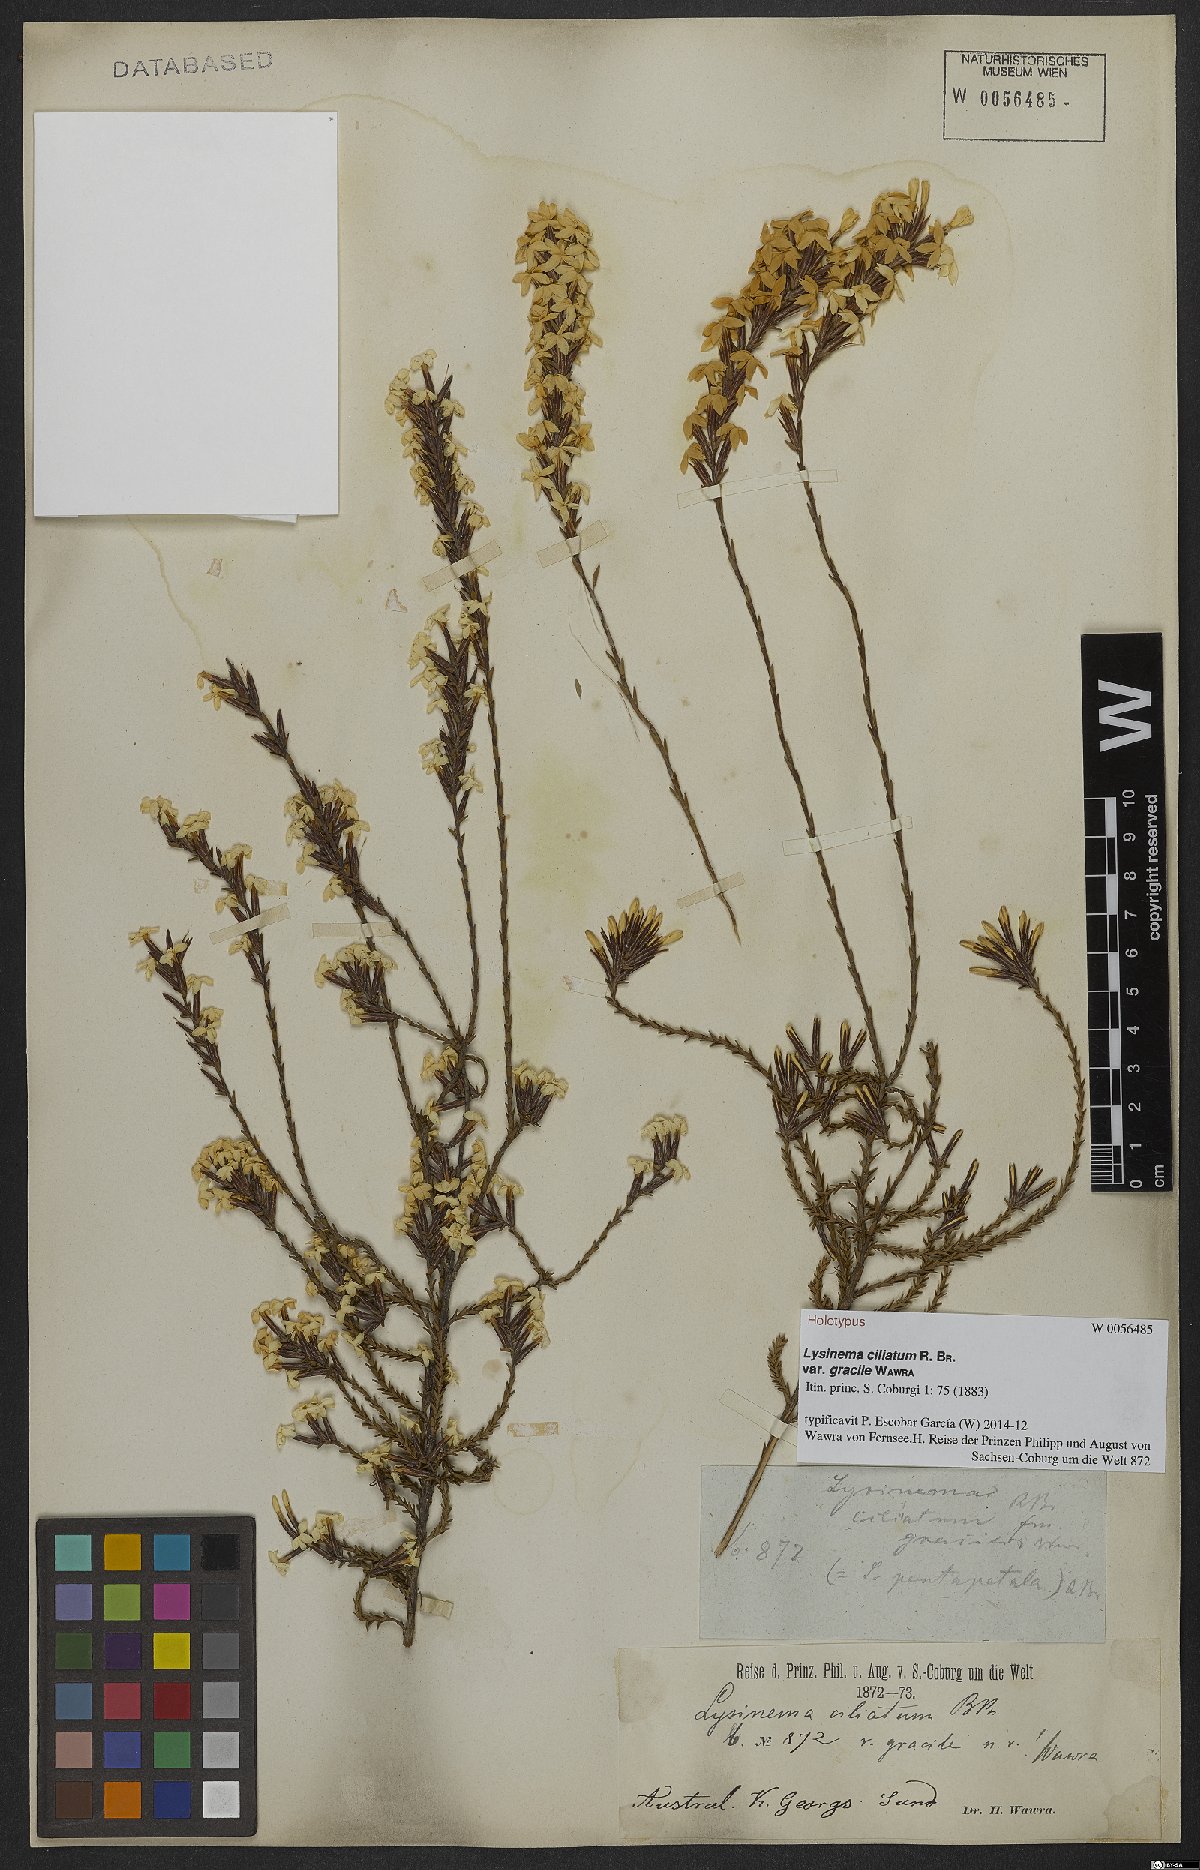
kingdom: Plantae
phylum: Tracheophyta
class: Magnoliopsida
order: Ericales
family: Ericaceae
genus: Lysinema
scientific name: Lysinema pentapetalum
